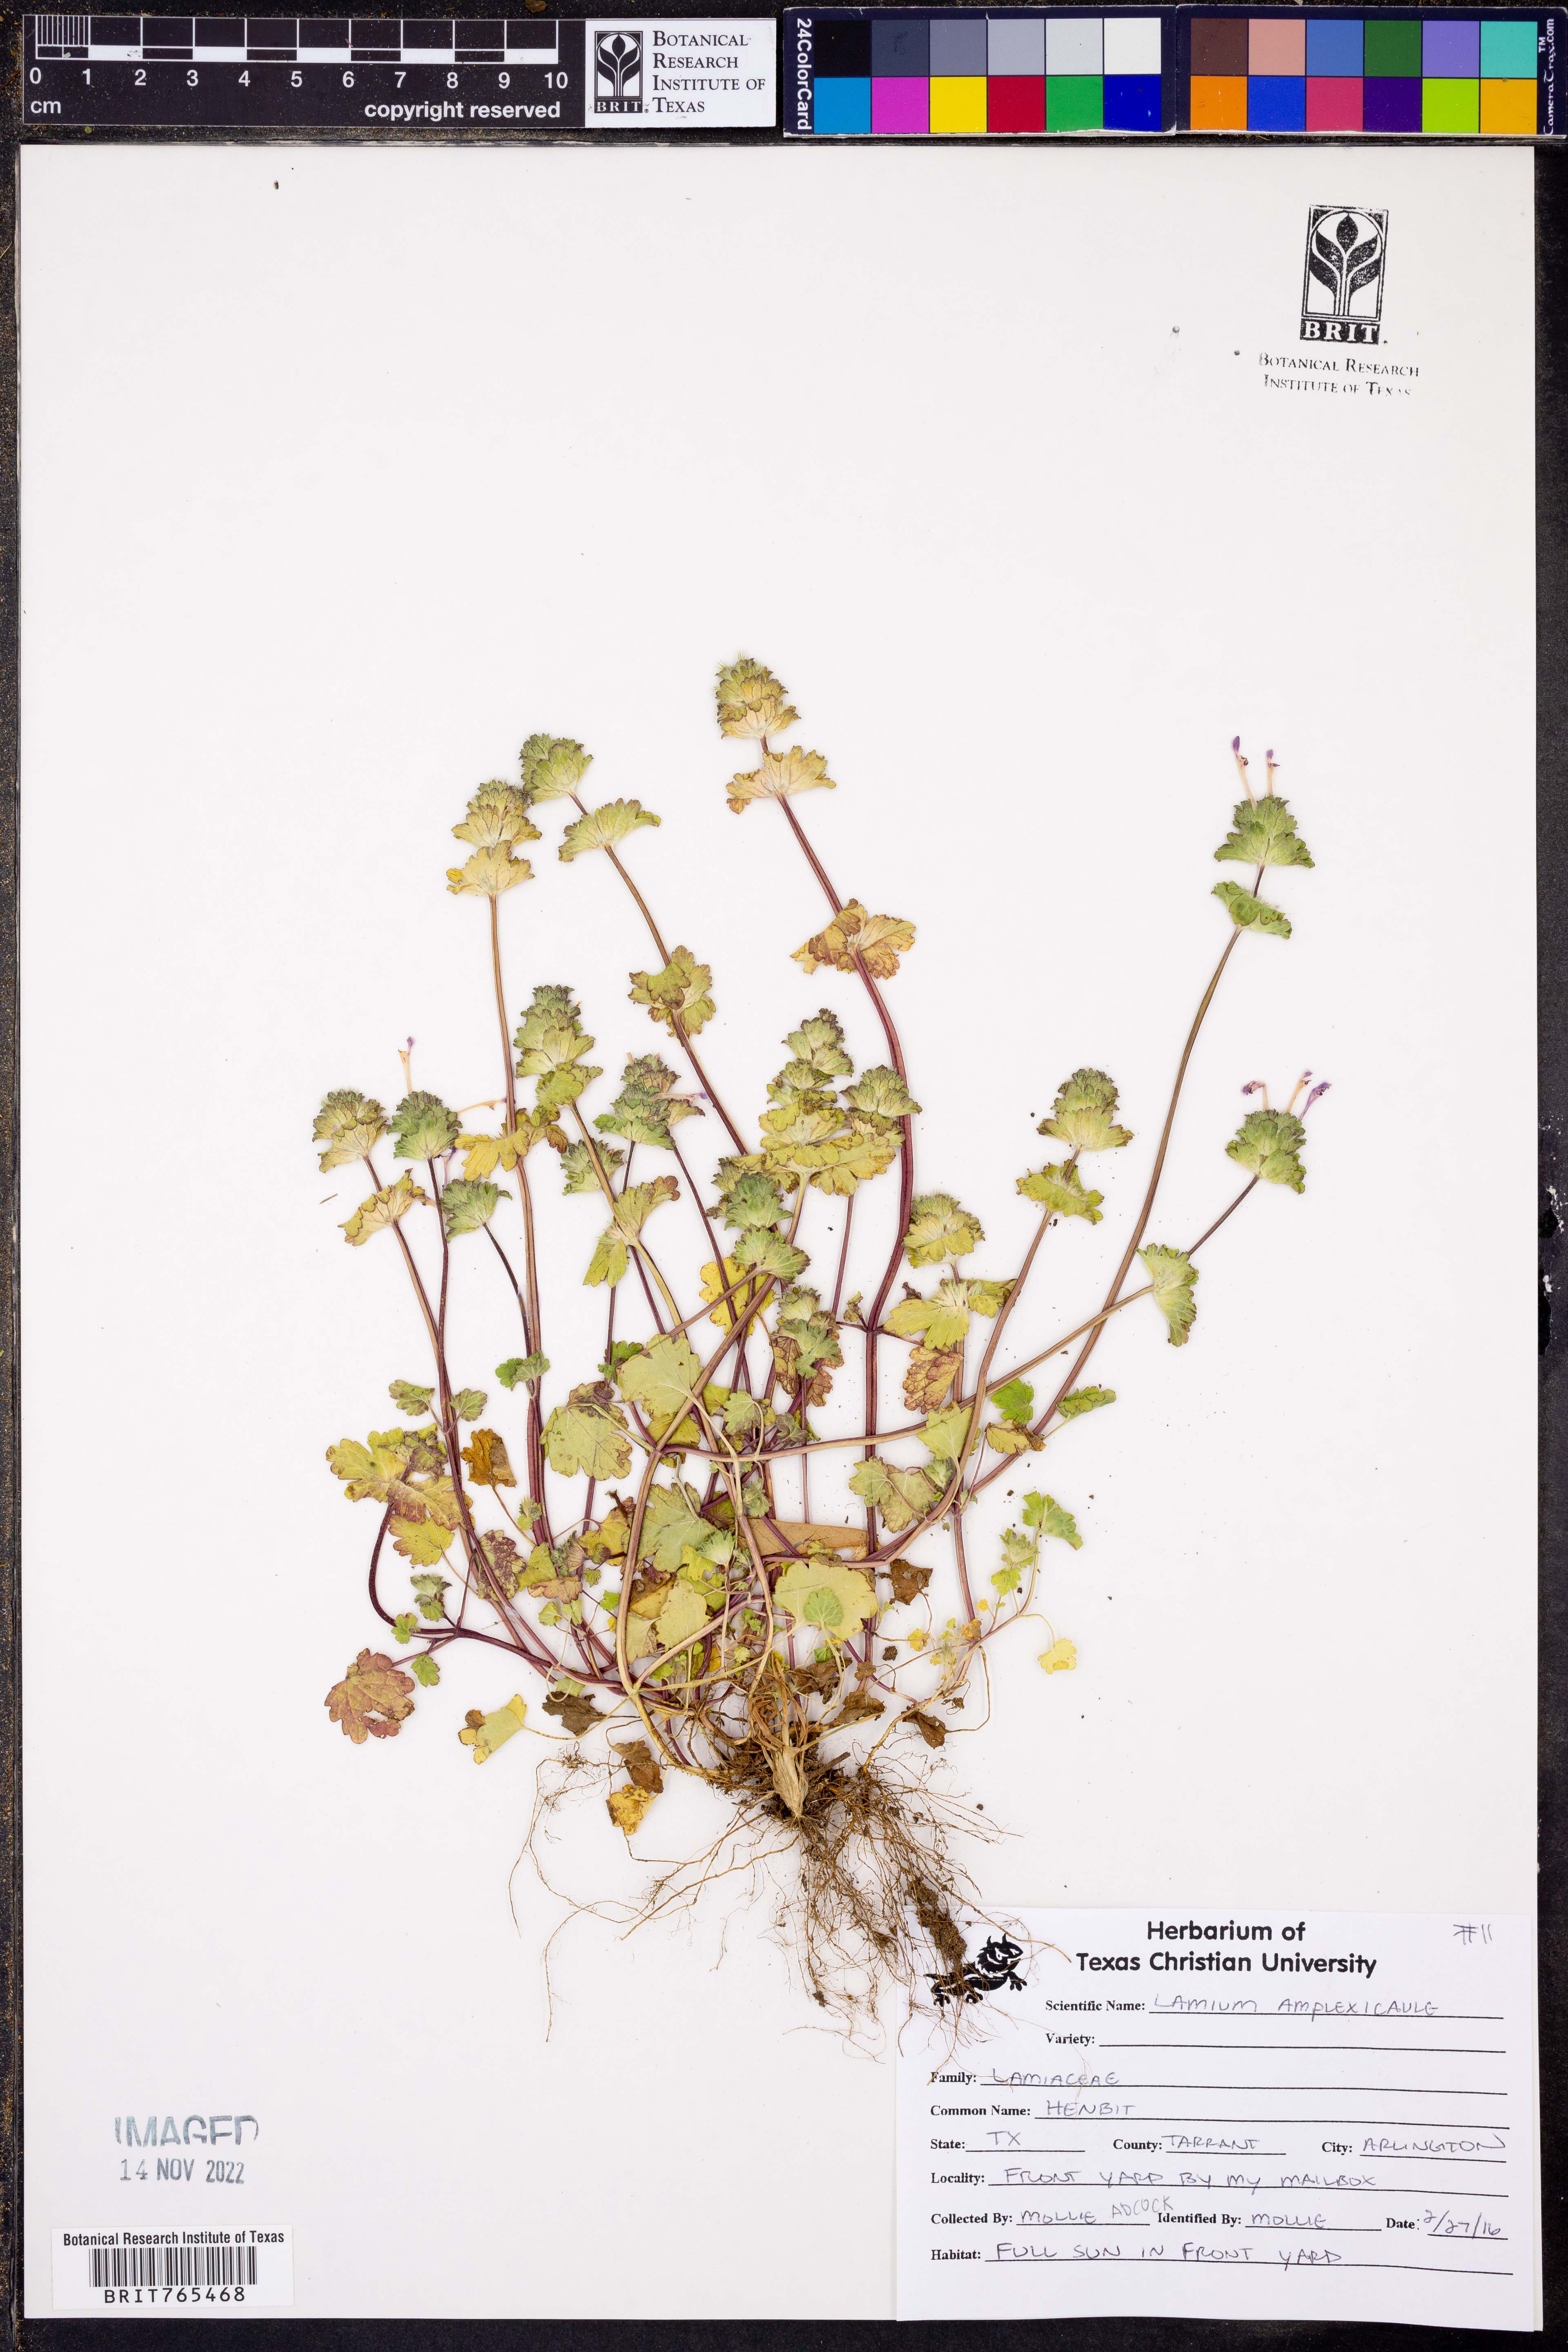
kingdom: Plantae
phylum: Tracheophyta
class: Magnoliopsida
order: Lamiales
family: Lamiaceae
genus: Lamium
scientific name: Lamium amplexicaule
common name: Henbit dead-nettle
